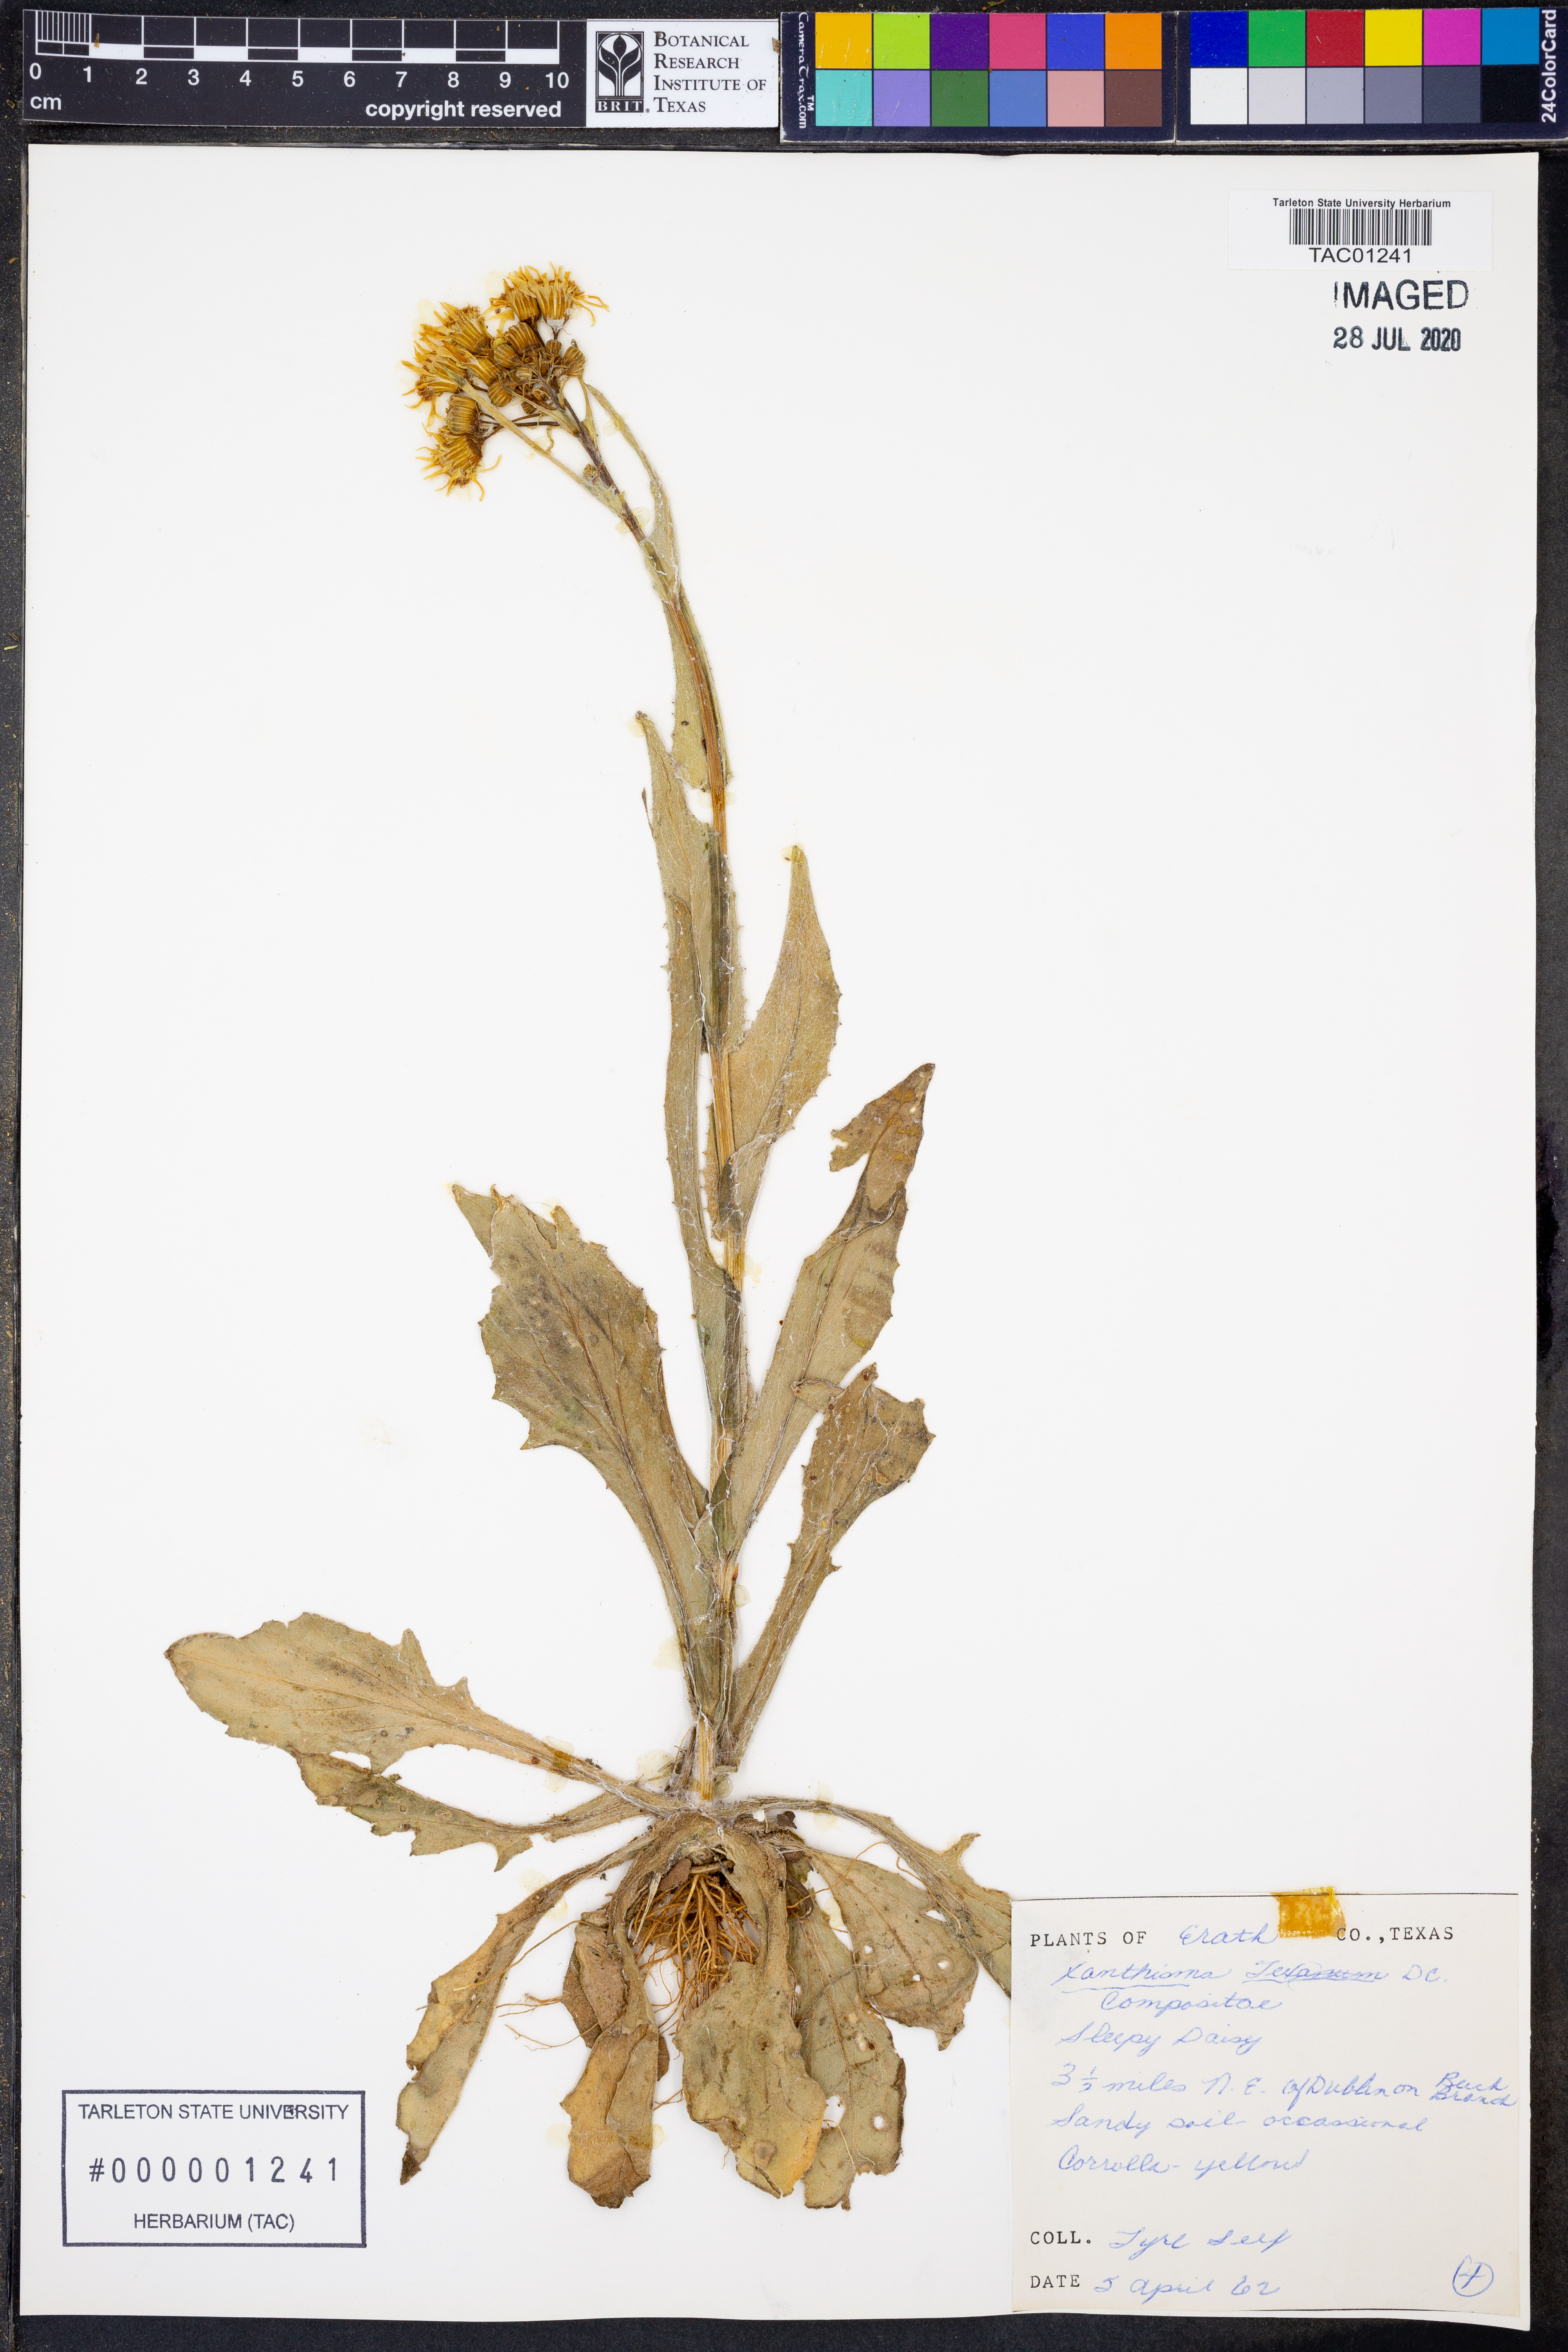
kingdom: Plantae
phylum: Tracheophyta
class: Magnoliopsida
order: Asterales
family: Asteraceae
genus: Xanthisma
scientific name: Xanthisma texanum
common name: Texas sleepy daisy
